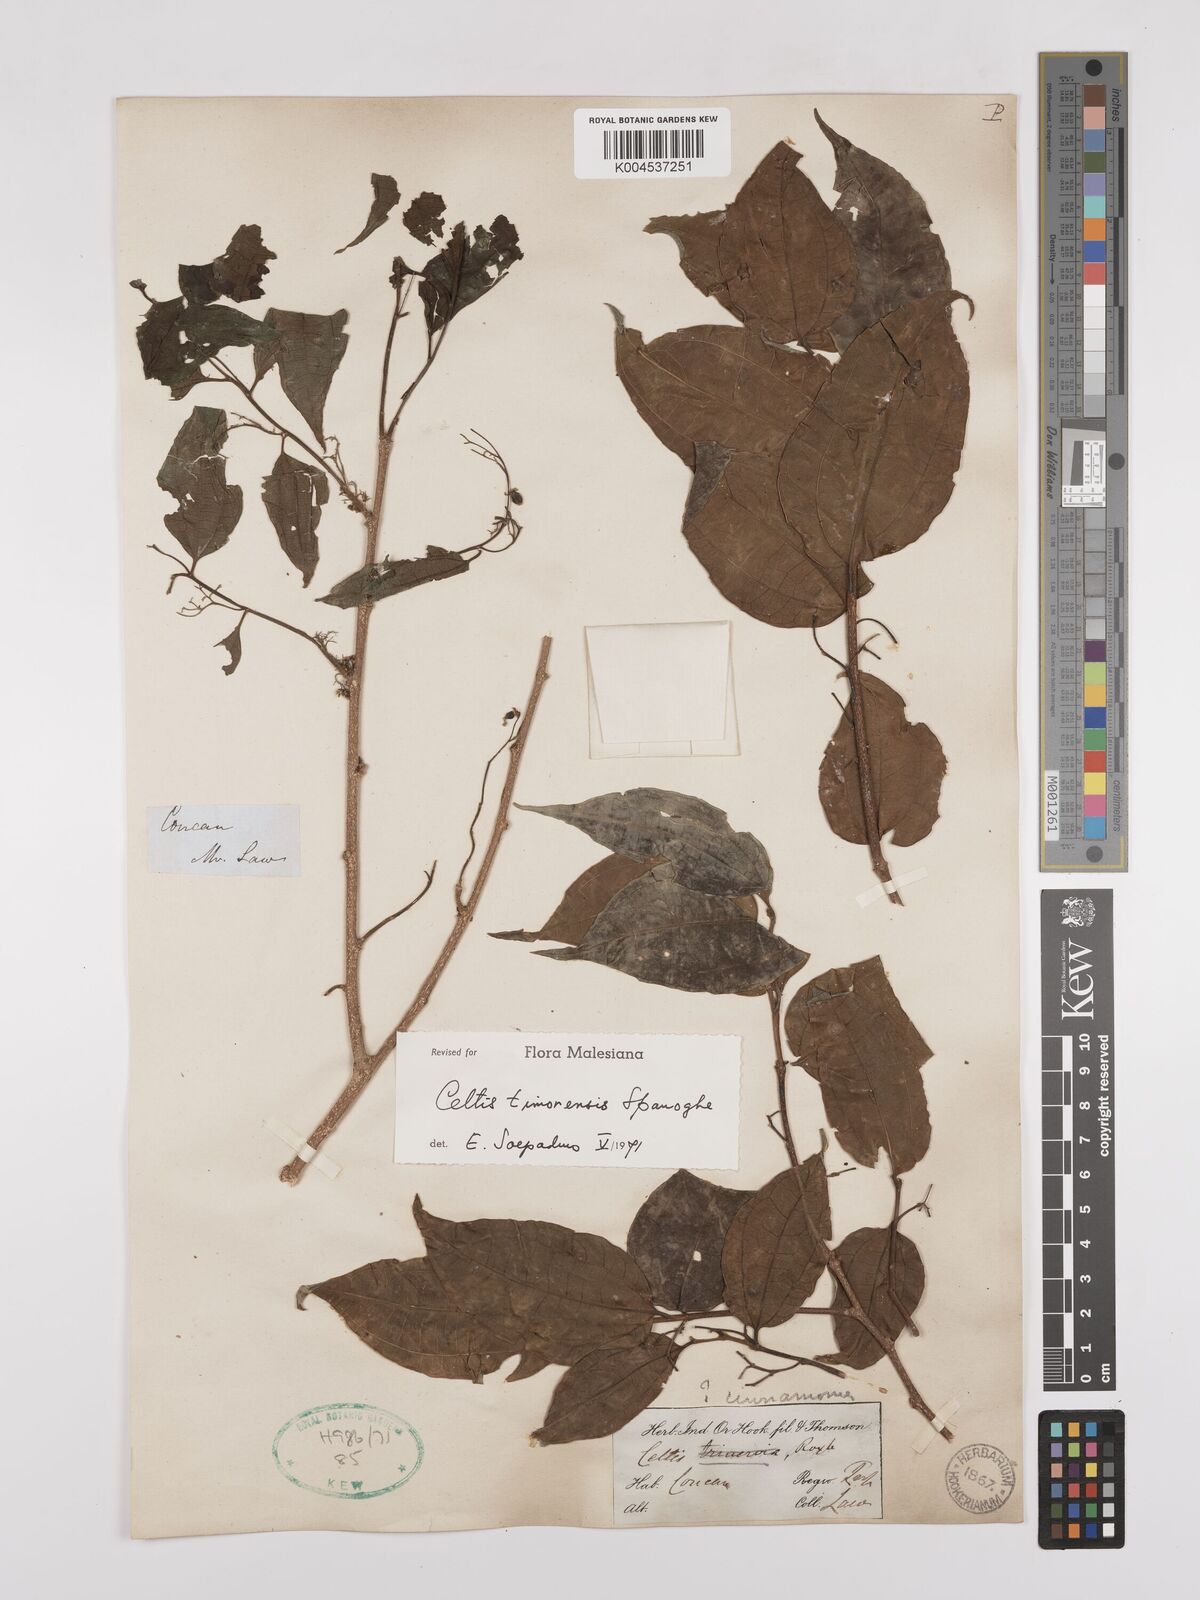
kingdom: Plantae
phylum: Tracheophyta
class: Magnoliopsida
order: Rosales
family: Cannabaceae
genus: Celtis
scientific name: Celtis timorensis
